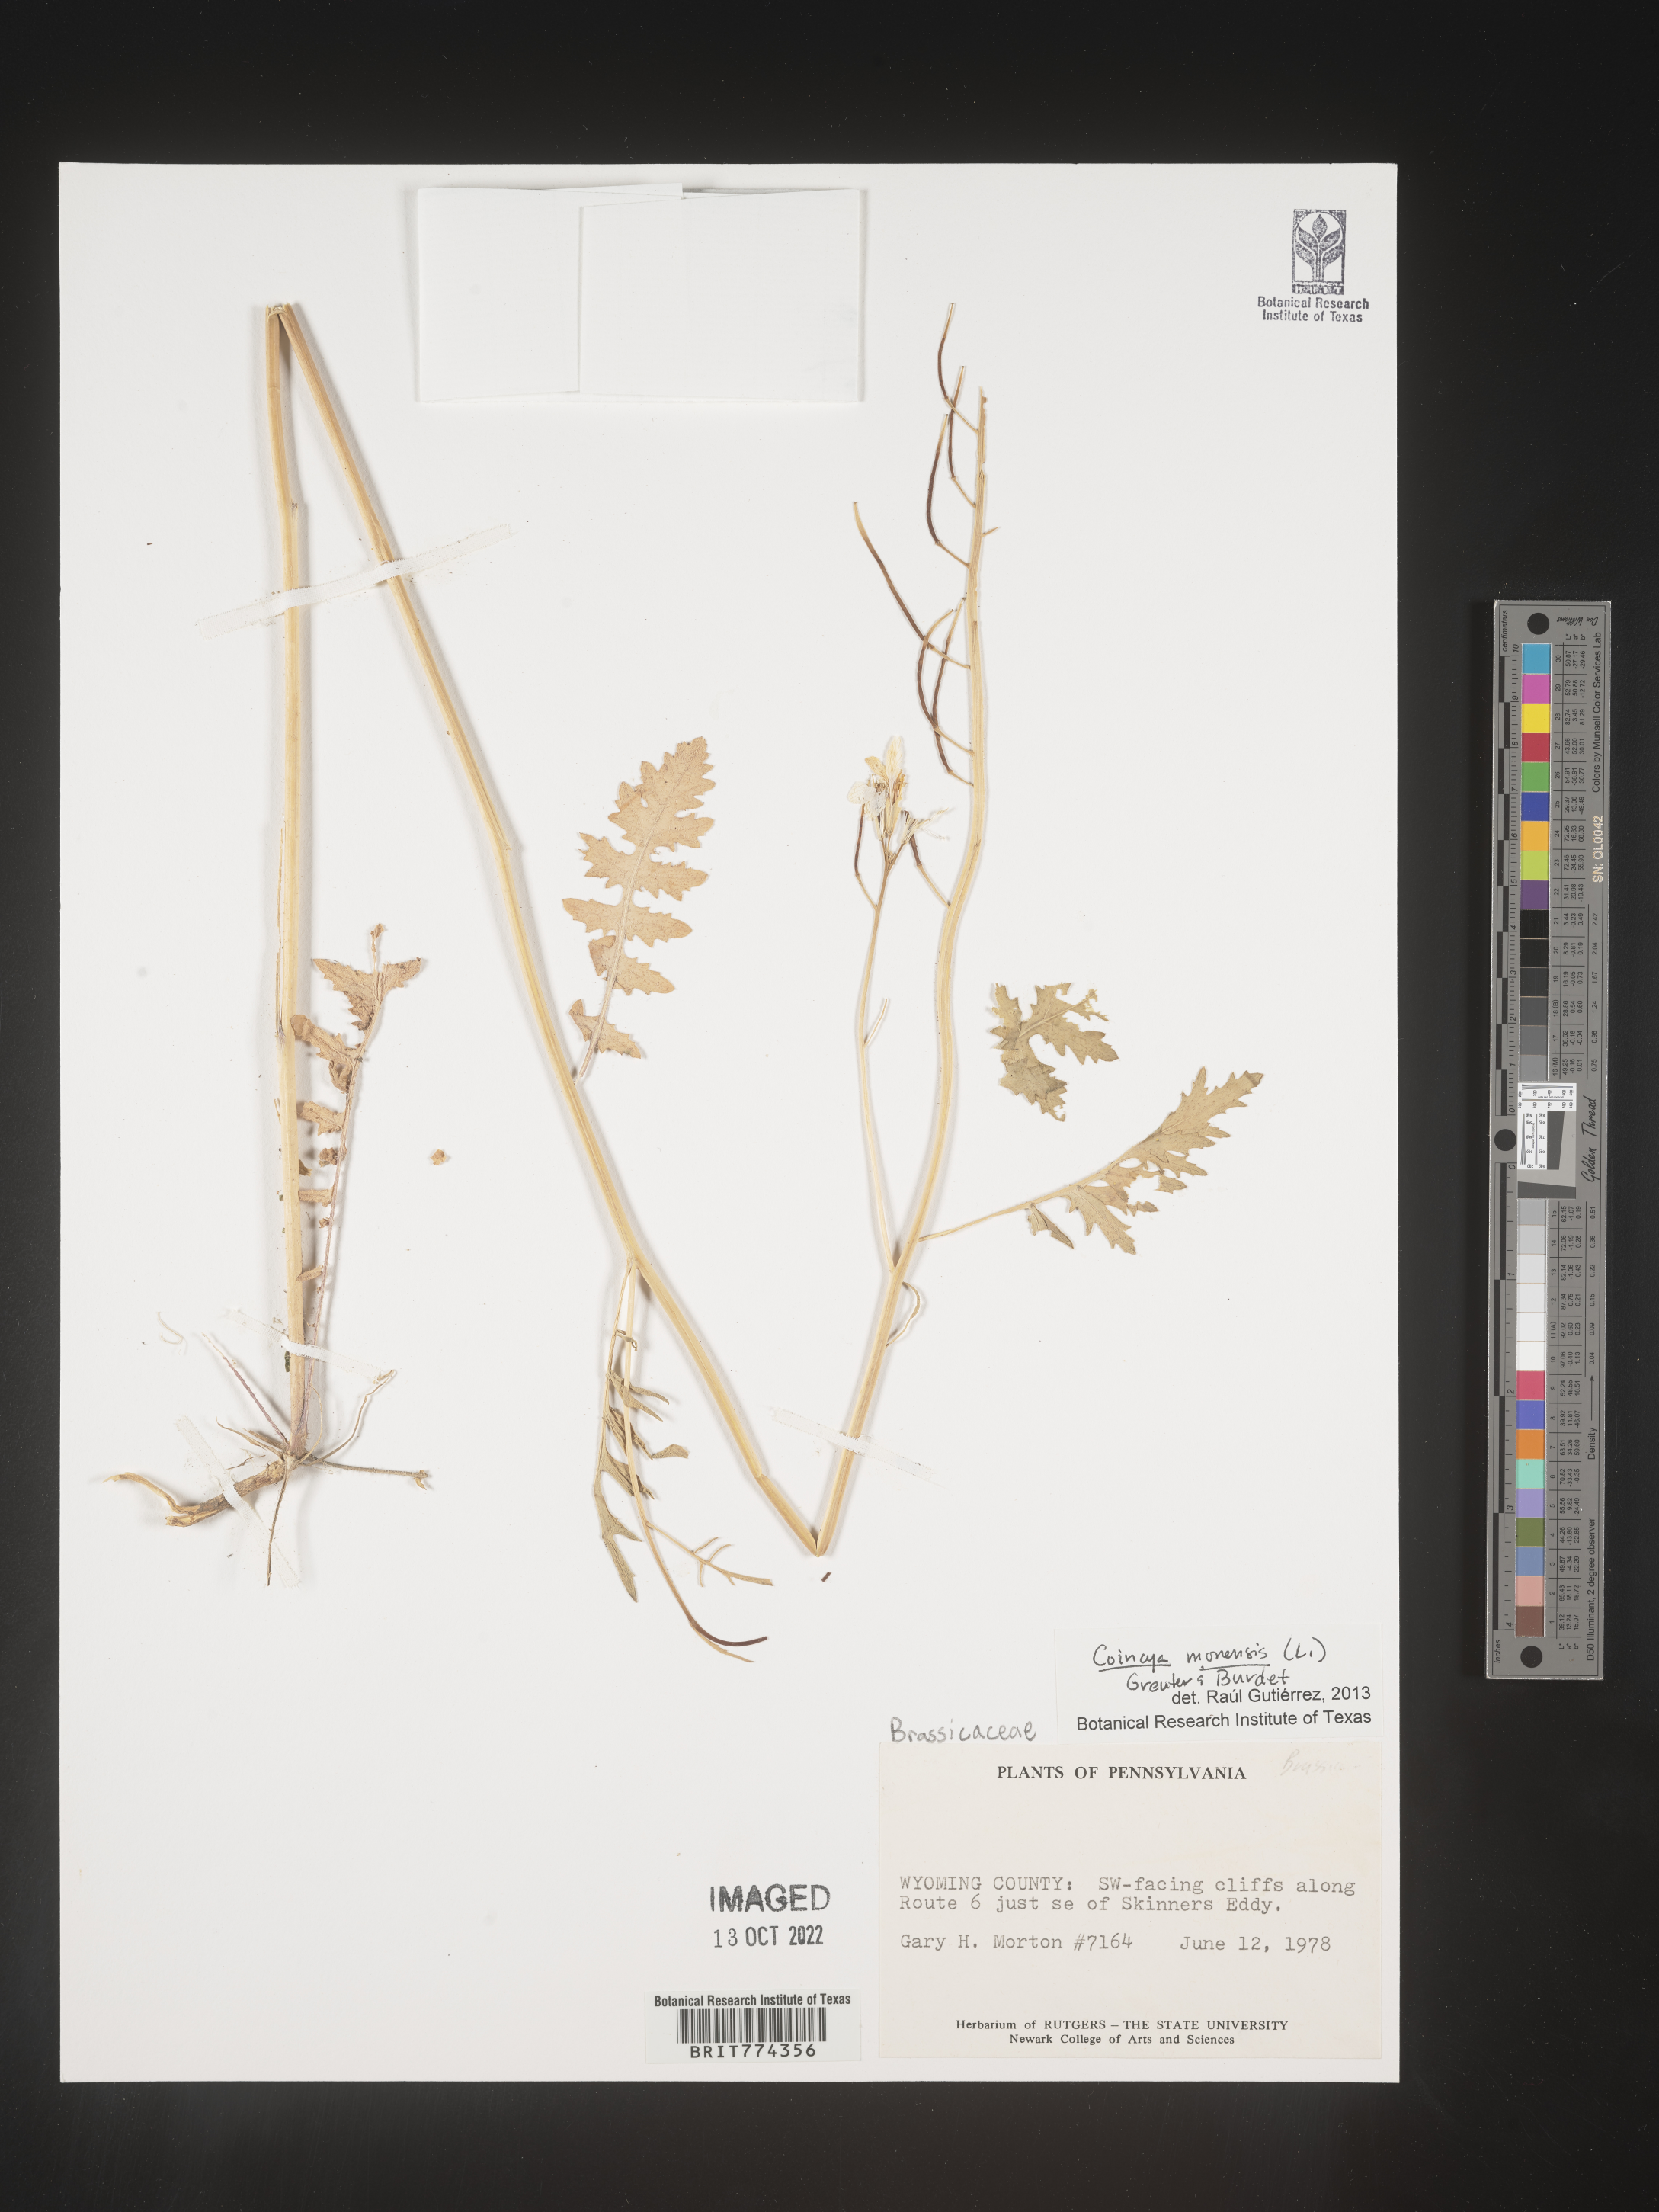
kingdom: Plantae
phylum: Tracheophyta
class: Magnoliopsida
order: Brassicales
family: Brassicaceae
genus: Coincya
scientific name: Coincya
